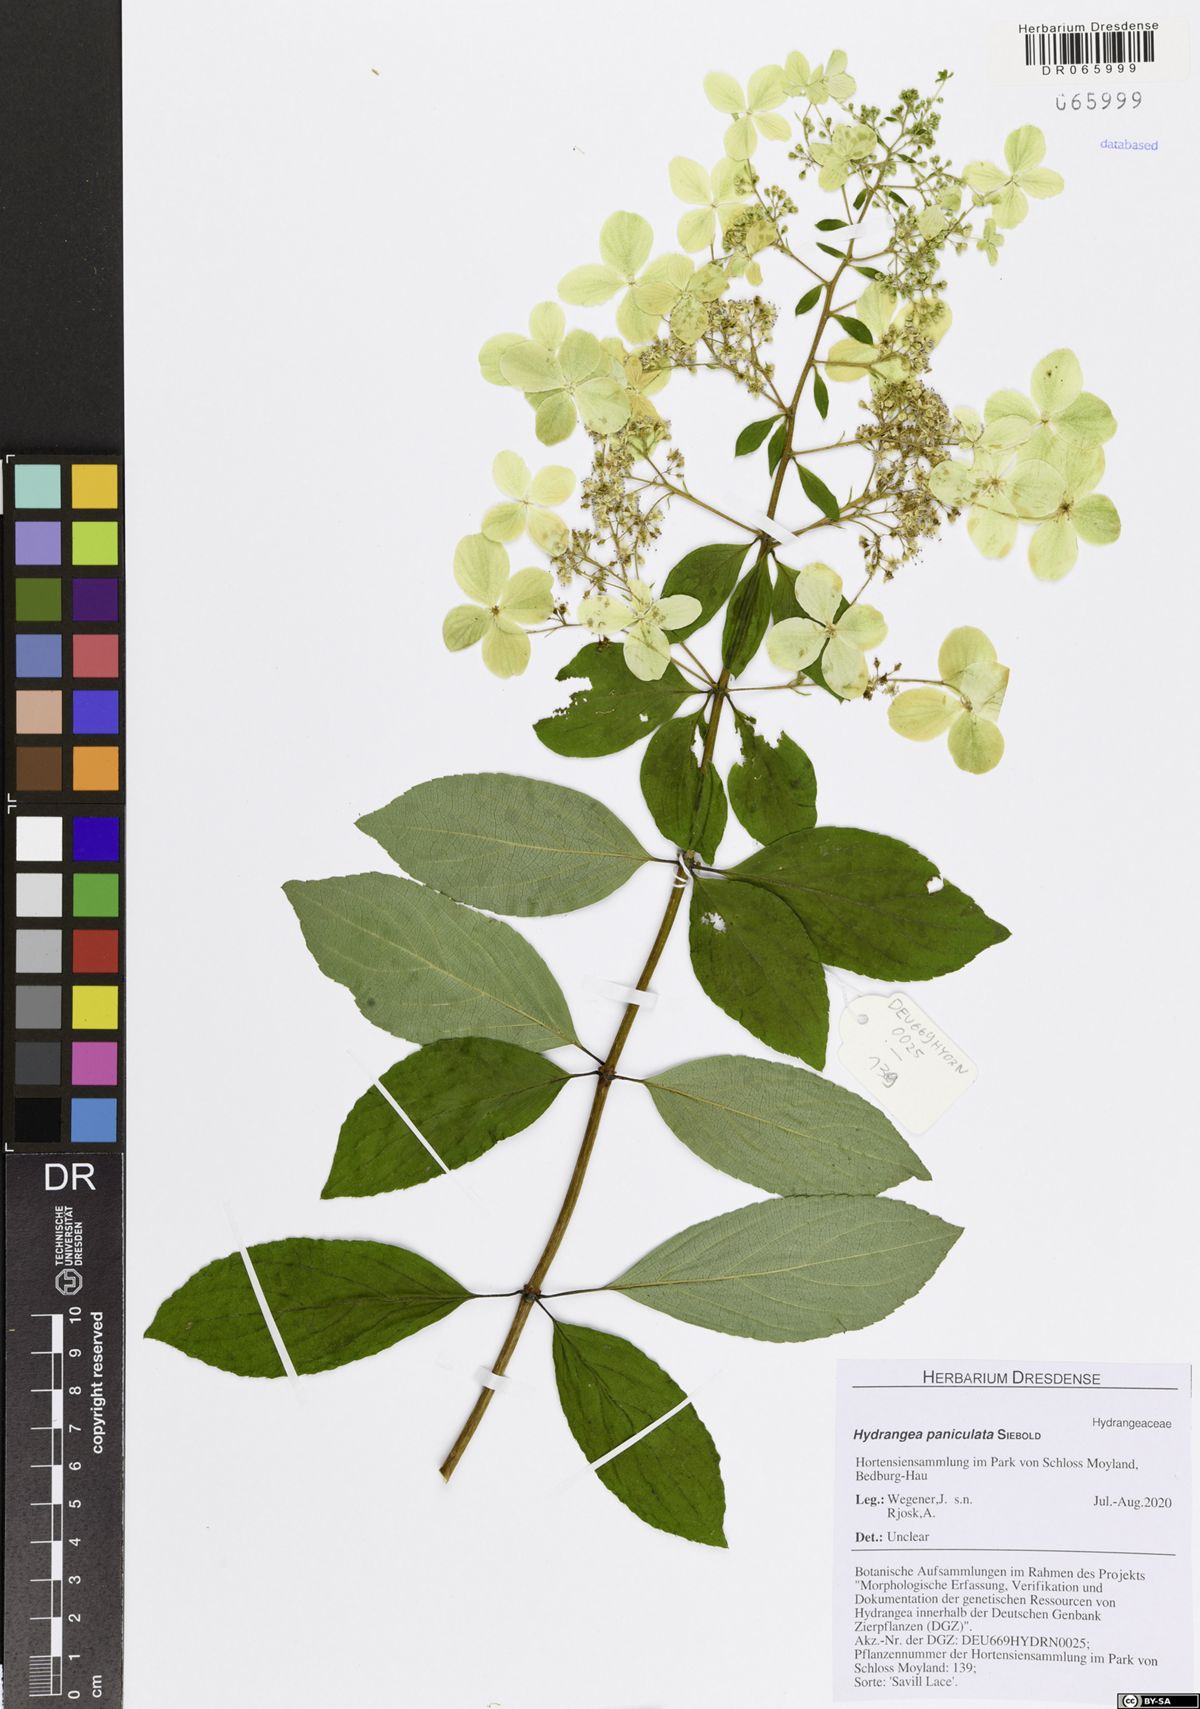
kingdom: Plantae
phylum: Tracheophyta
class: Magnoliopsida
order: Cornales
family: Hydrangeaceae
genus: Hydrangea
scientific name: Hydrangea paniculata
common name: Panicled hydrangea
